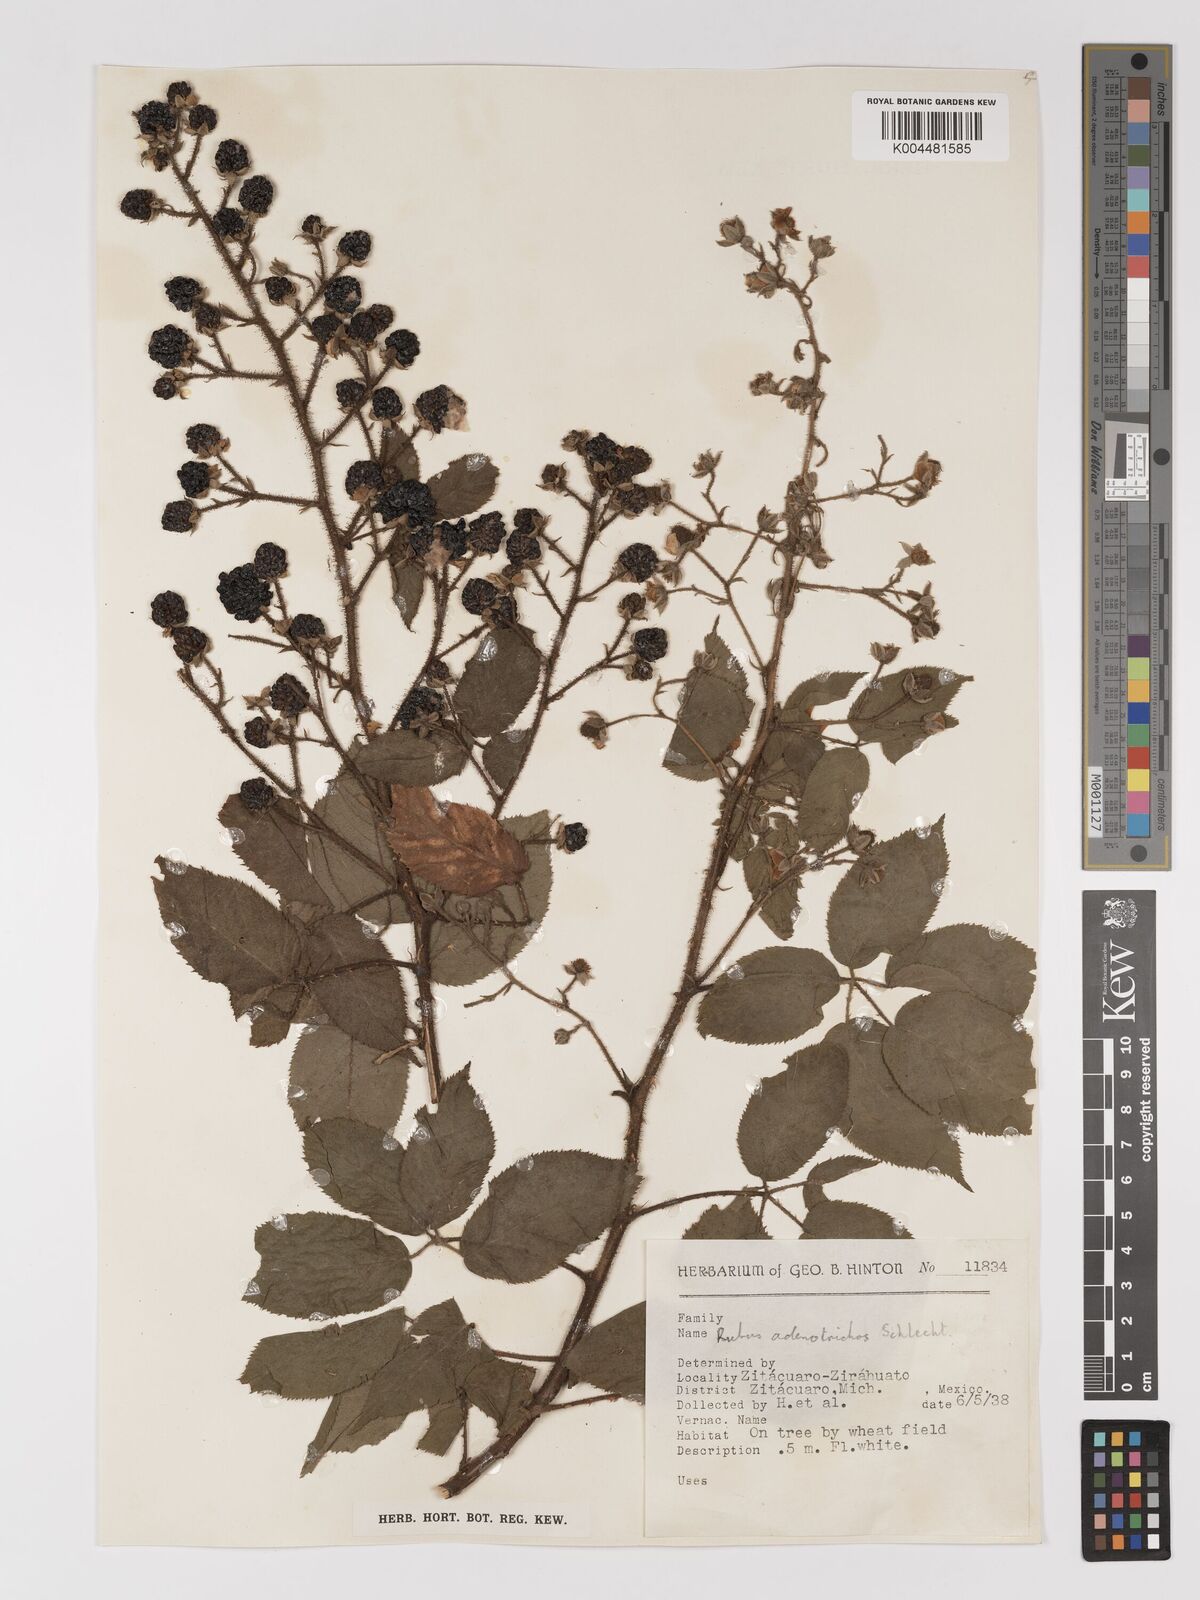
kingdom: Plantae
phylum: Tracheophyta
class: Magnoliopsida
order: Rosales
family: Rosaceae
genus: Rubus
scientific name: Rubus adenotrichos
